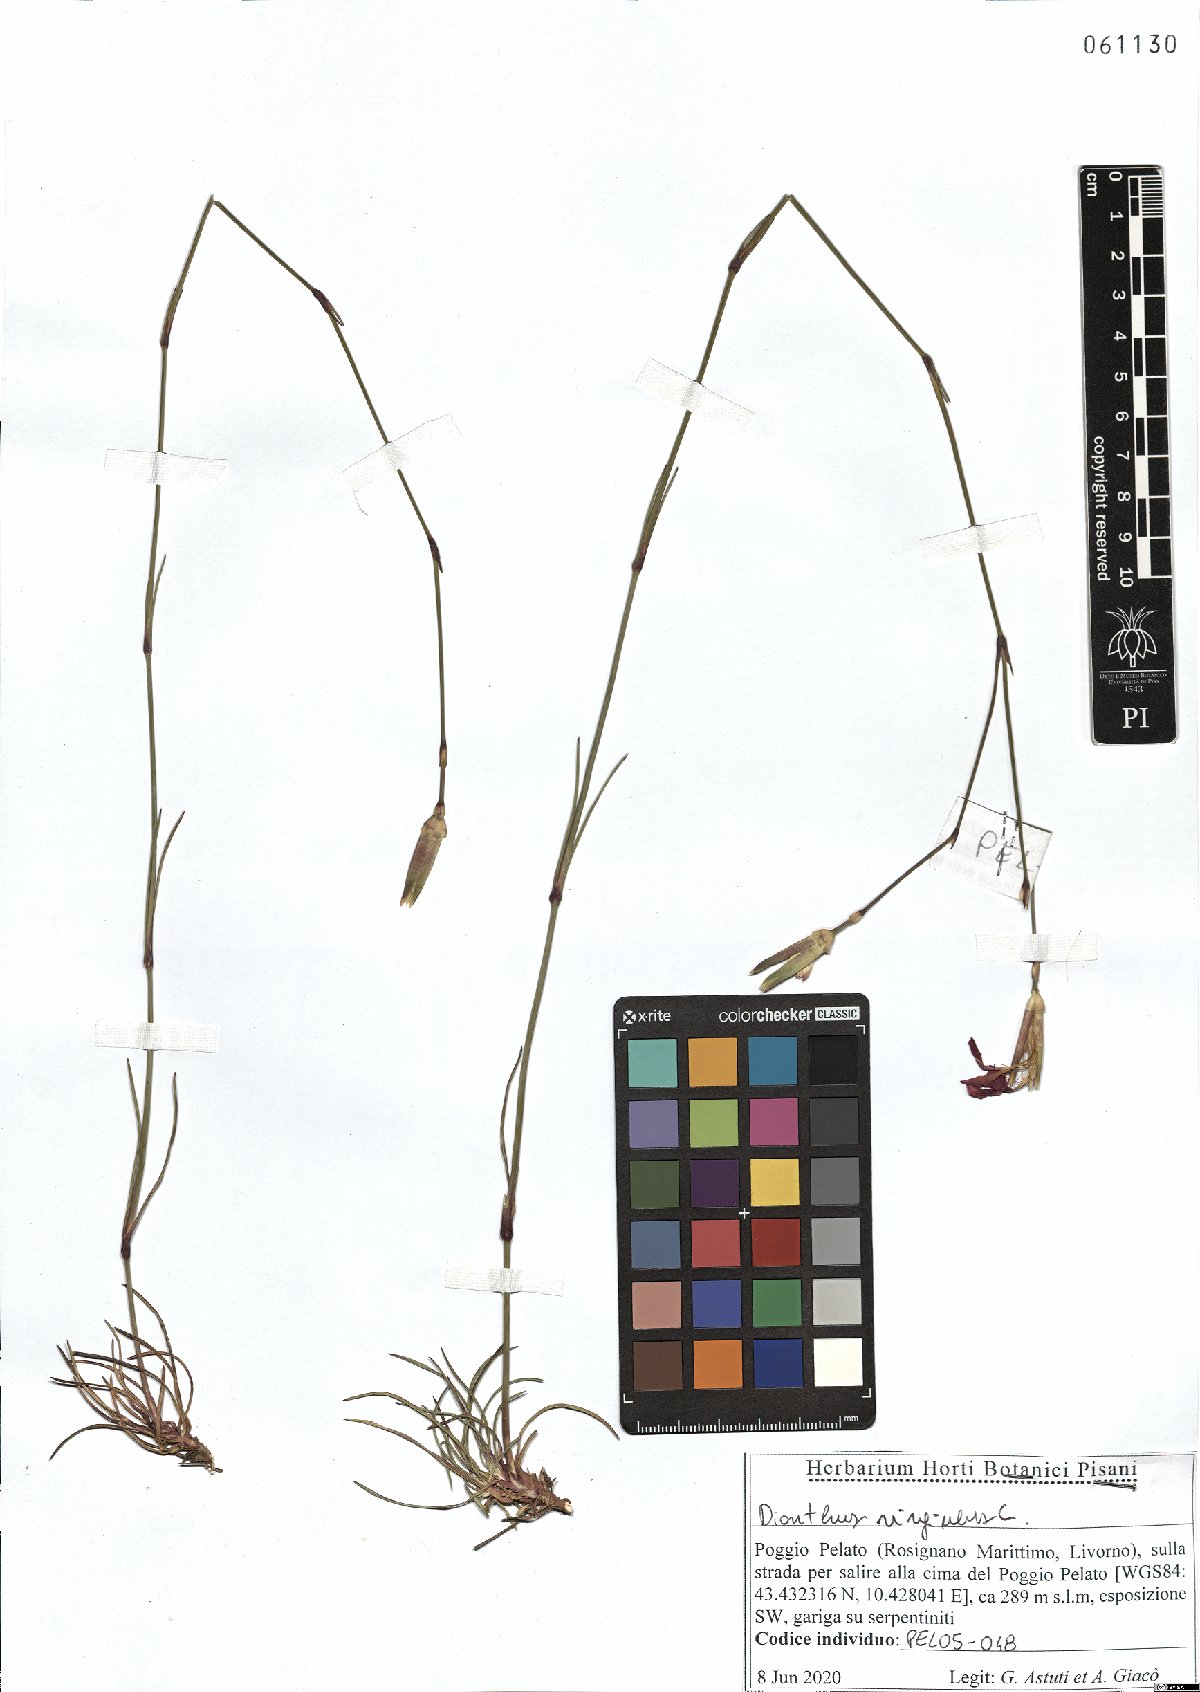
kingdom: Plantae
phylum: Tracheophyta
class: Magnoliopsida
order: Caryophyllales
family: Caryophyllaceae
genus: Dianthus
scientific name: Dianthus virgineus
